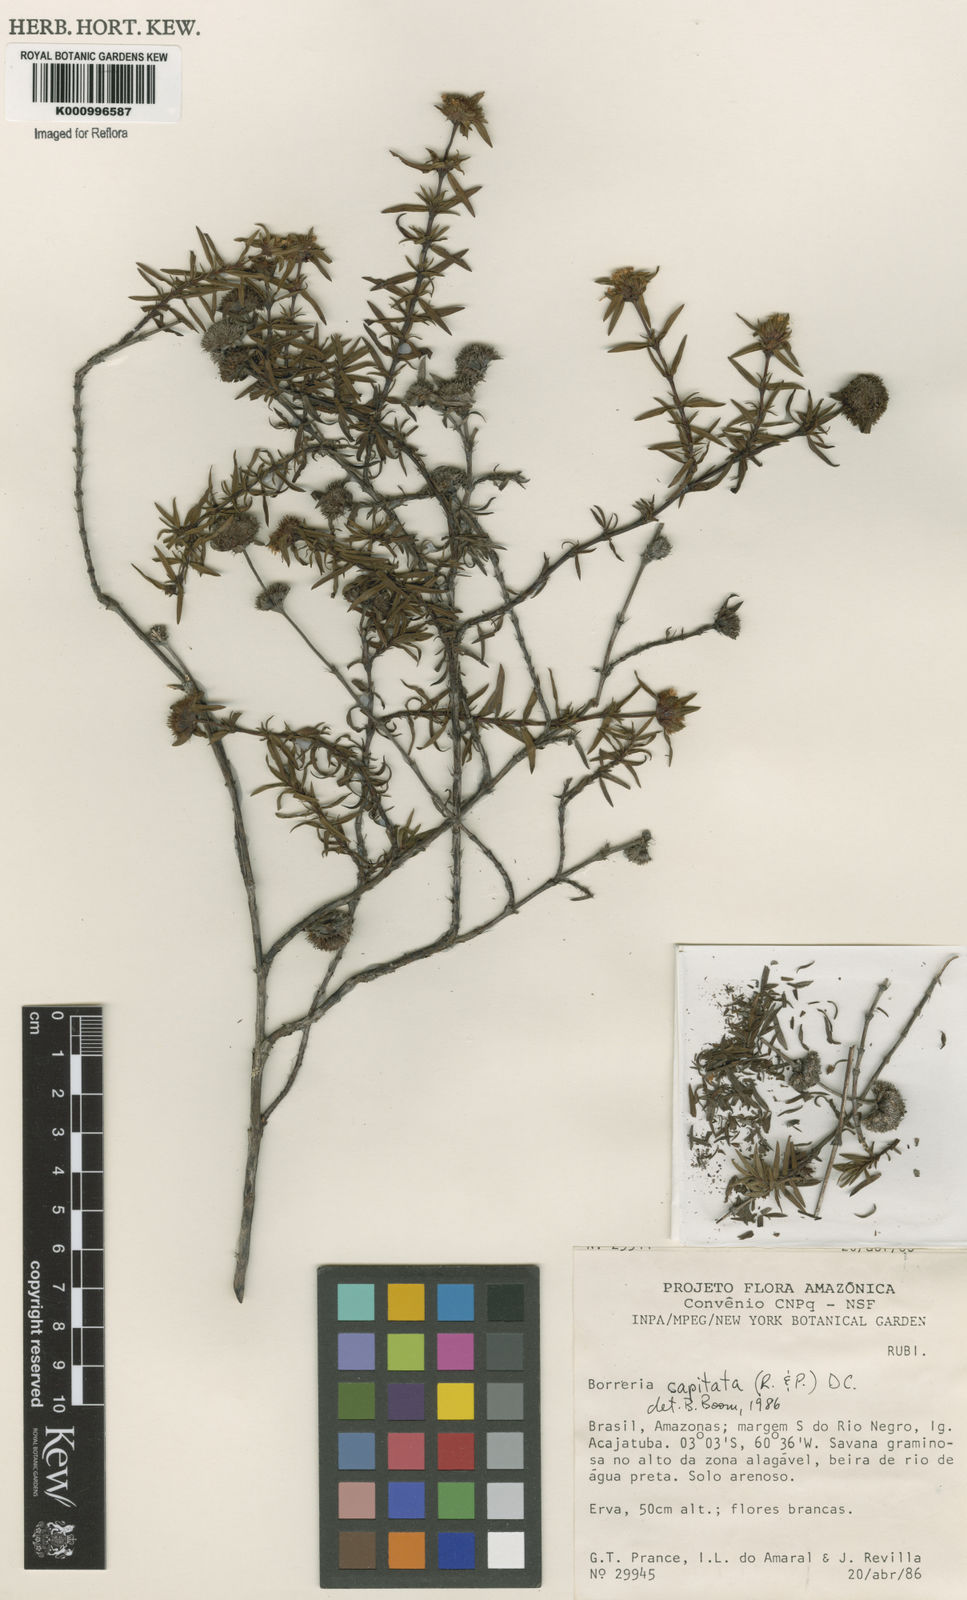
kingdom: Plantae
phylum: Tracheophyta
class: Magnoliopsida
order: Gentianales
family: Rubiaceae
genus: Spermacoce
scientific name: Spermacoce capitata
